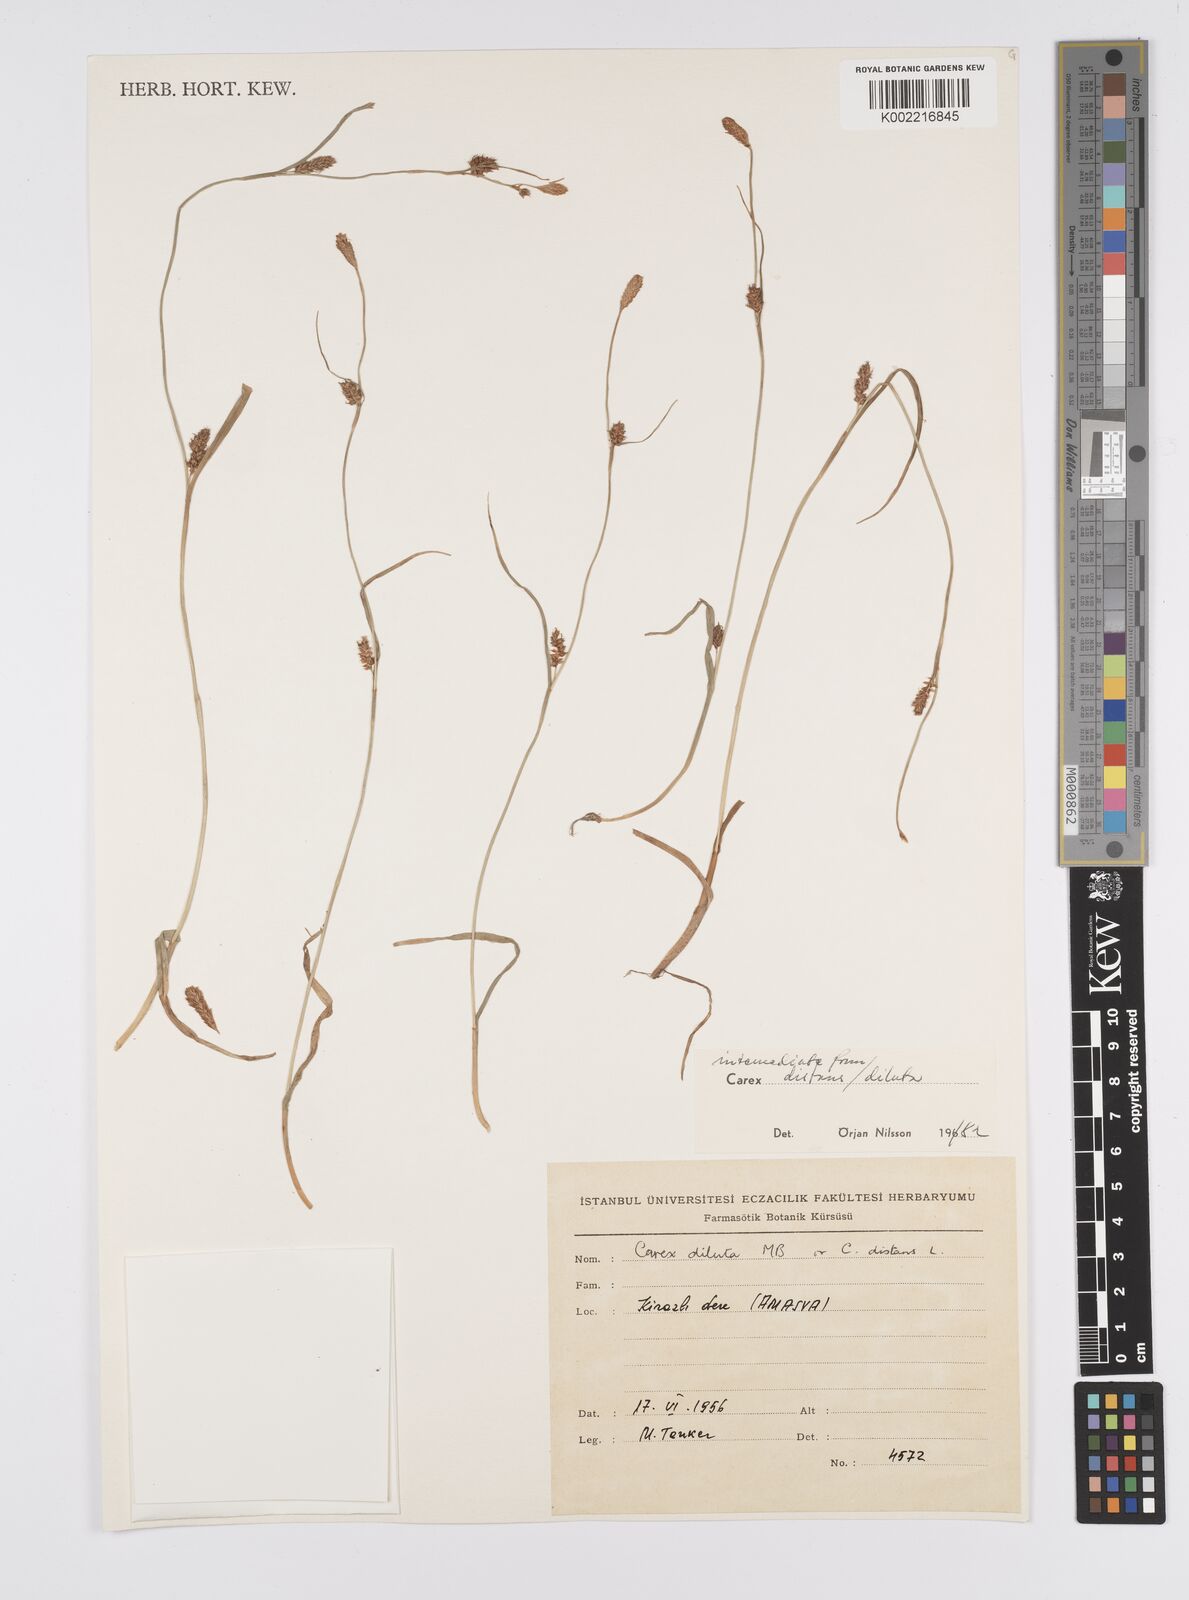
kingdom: Plantae
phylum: Tracheophyta
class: Liliopsida
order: Poales
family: Cyperaceae
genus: Carex
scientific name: Carex diluta
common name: Sedge
